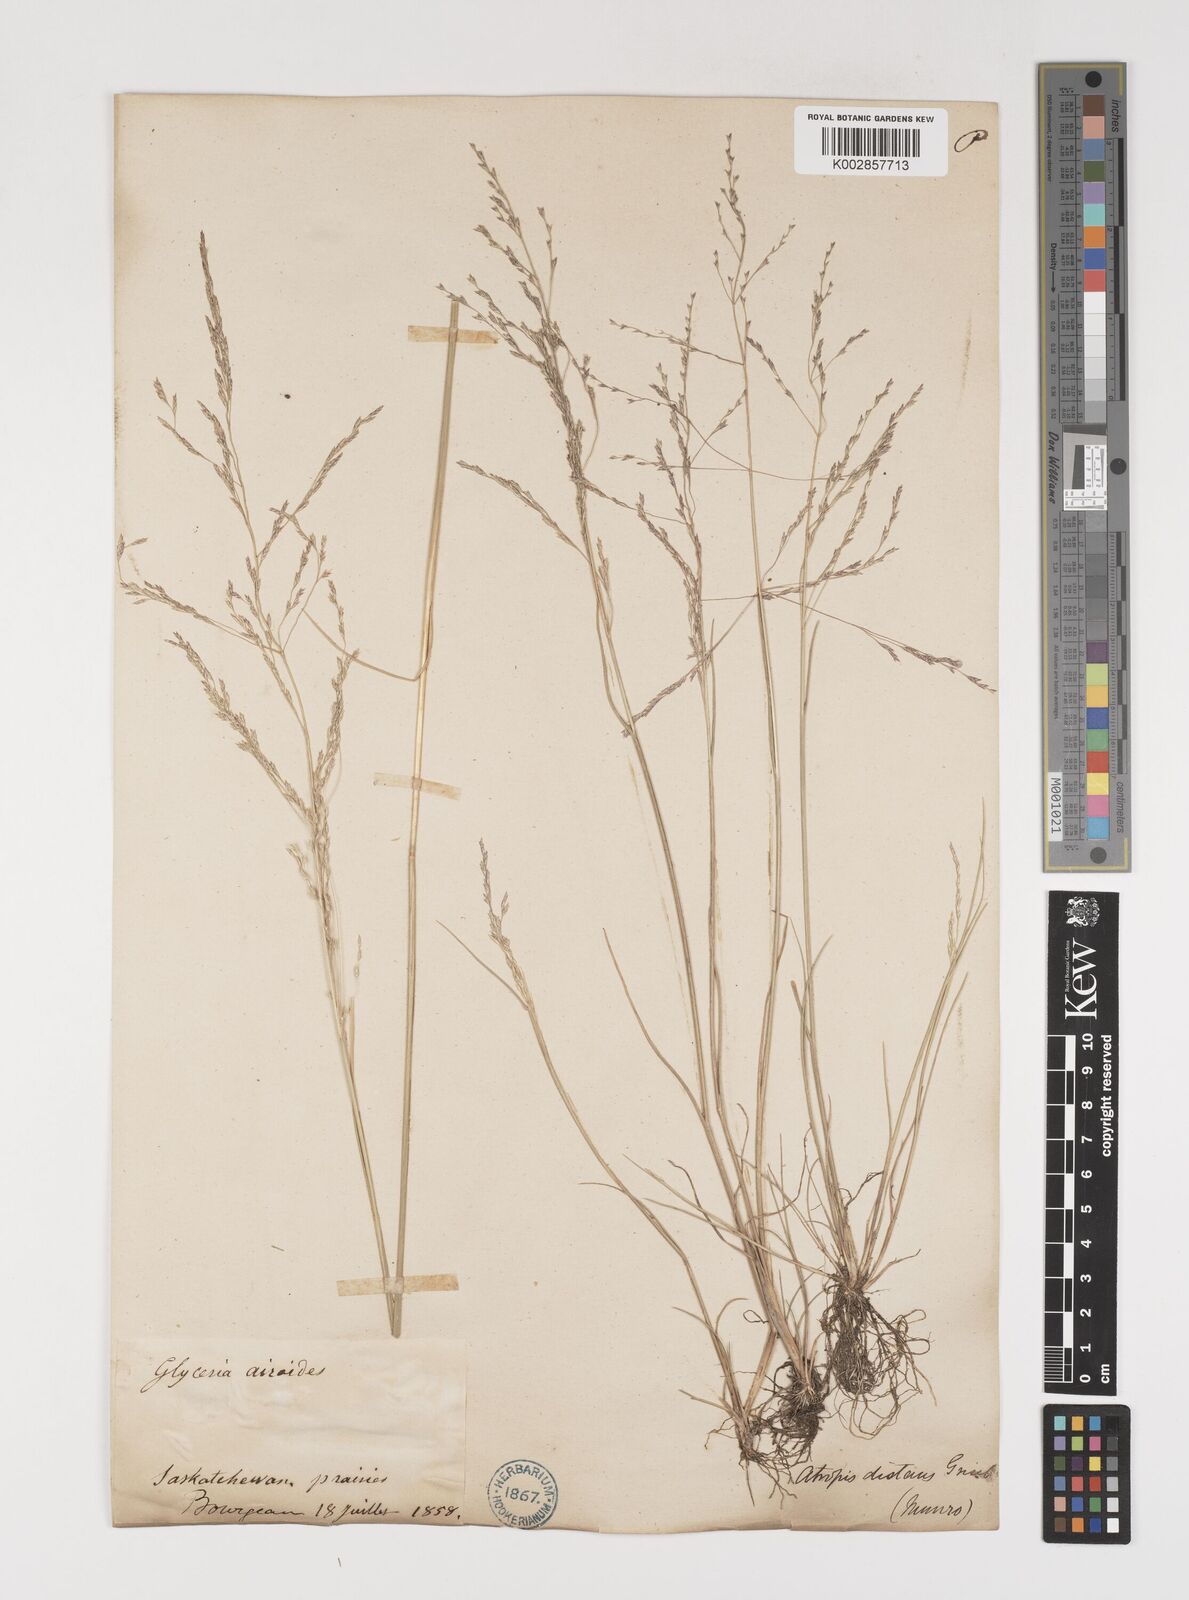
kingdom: Plantae
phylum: Tracheophyta
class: Liliopsida
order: Poales
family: Poaceae
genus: Puccinellia
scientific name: Puccinellia nuttalliana
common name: Nuttall's alkali grass
